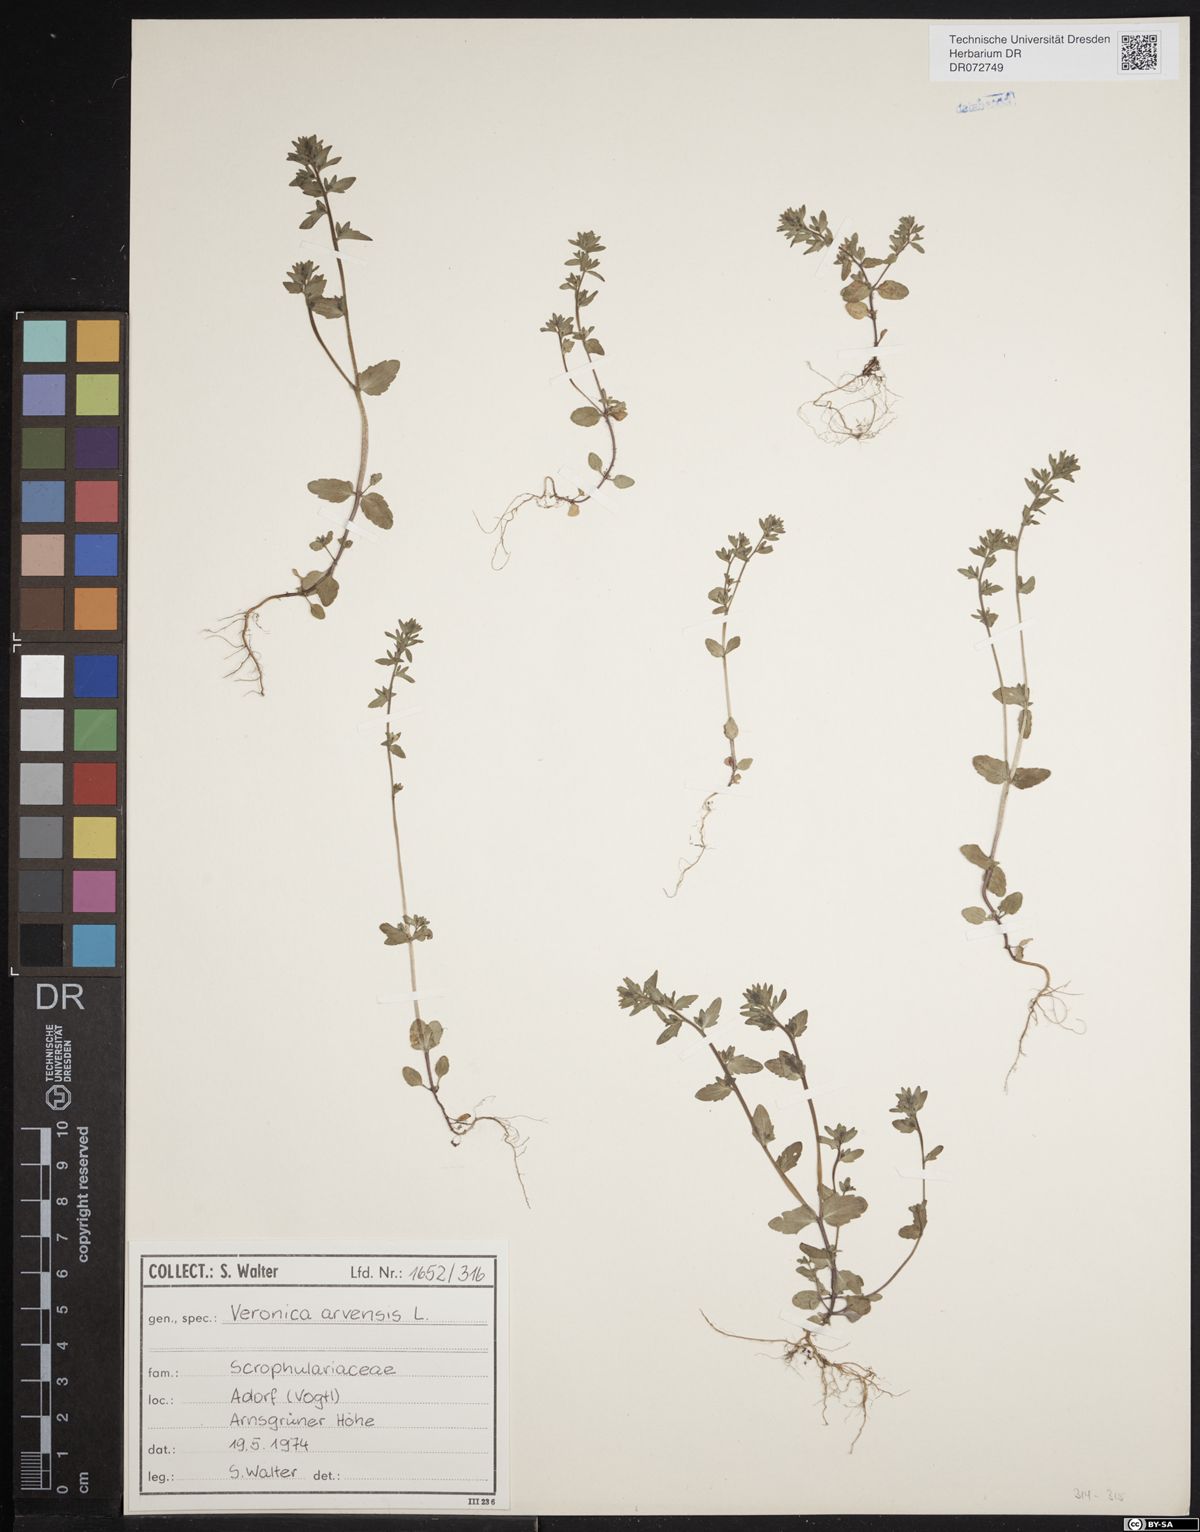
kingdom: Plantae
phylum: Tracheophyta
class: Magnoliopsida
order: Lamiales
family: Plantaginaceae
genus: Veronica
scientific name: Veronica arvensis
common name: Corn speedwell
